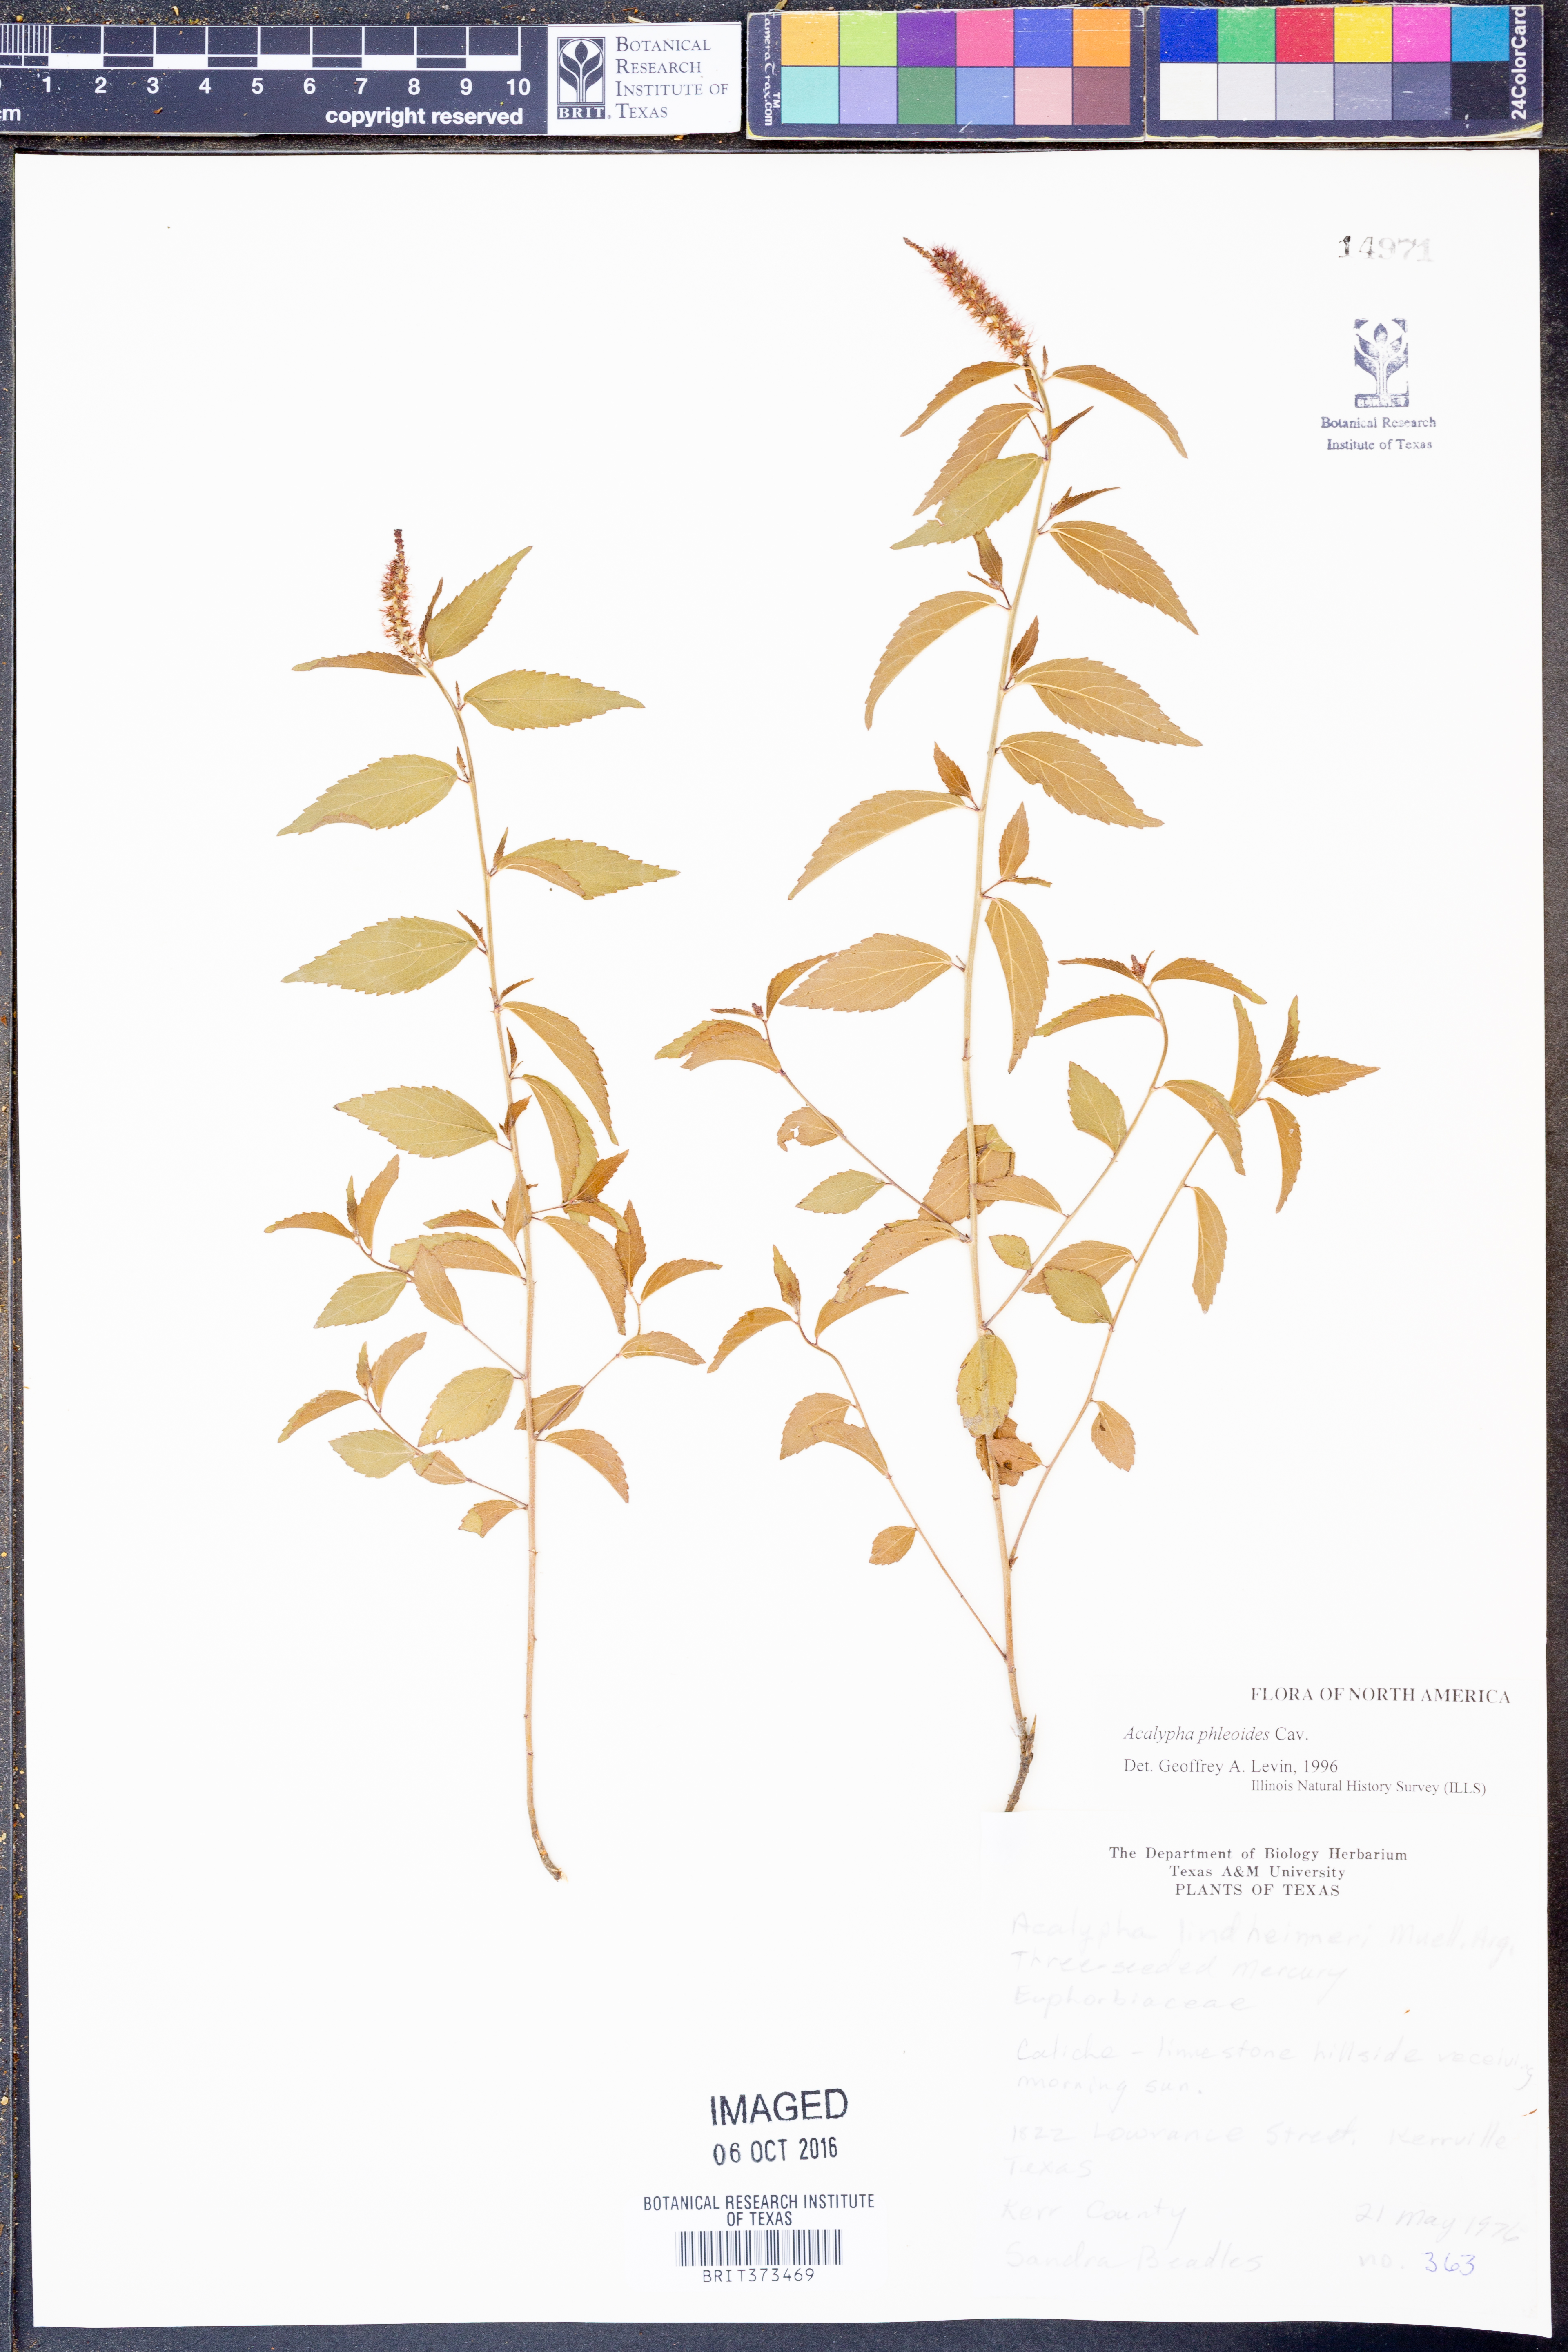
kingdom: Plantae
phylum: Tracheophyta
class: Magnoliopsida
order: Malpighiales
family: Euphorbiaceae
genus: Acalypha
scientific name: Acalypha phleoides
